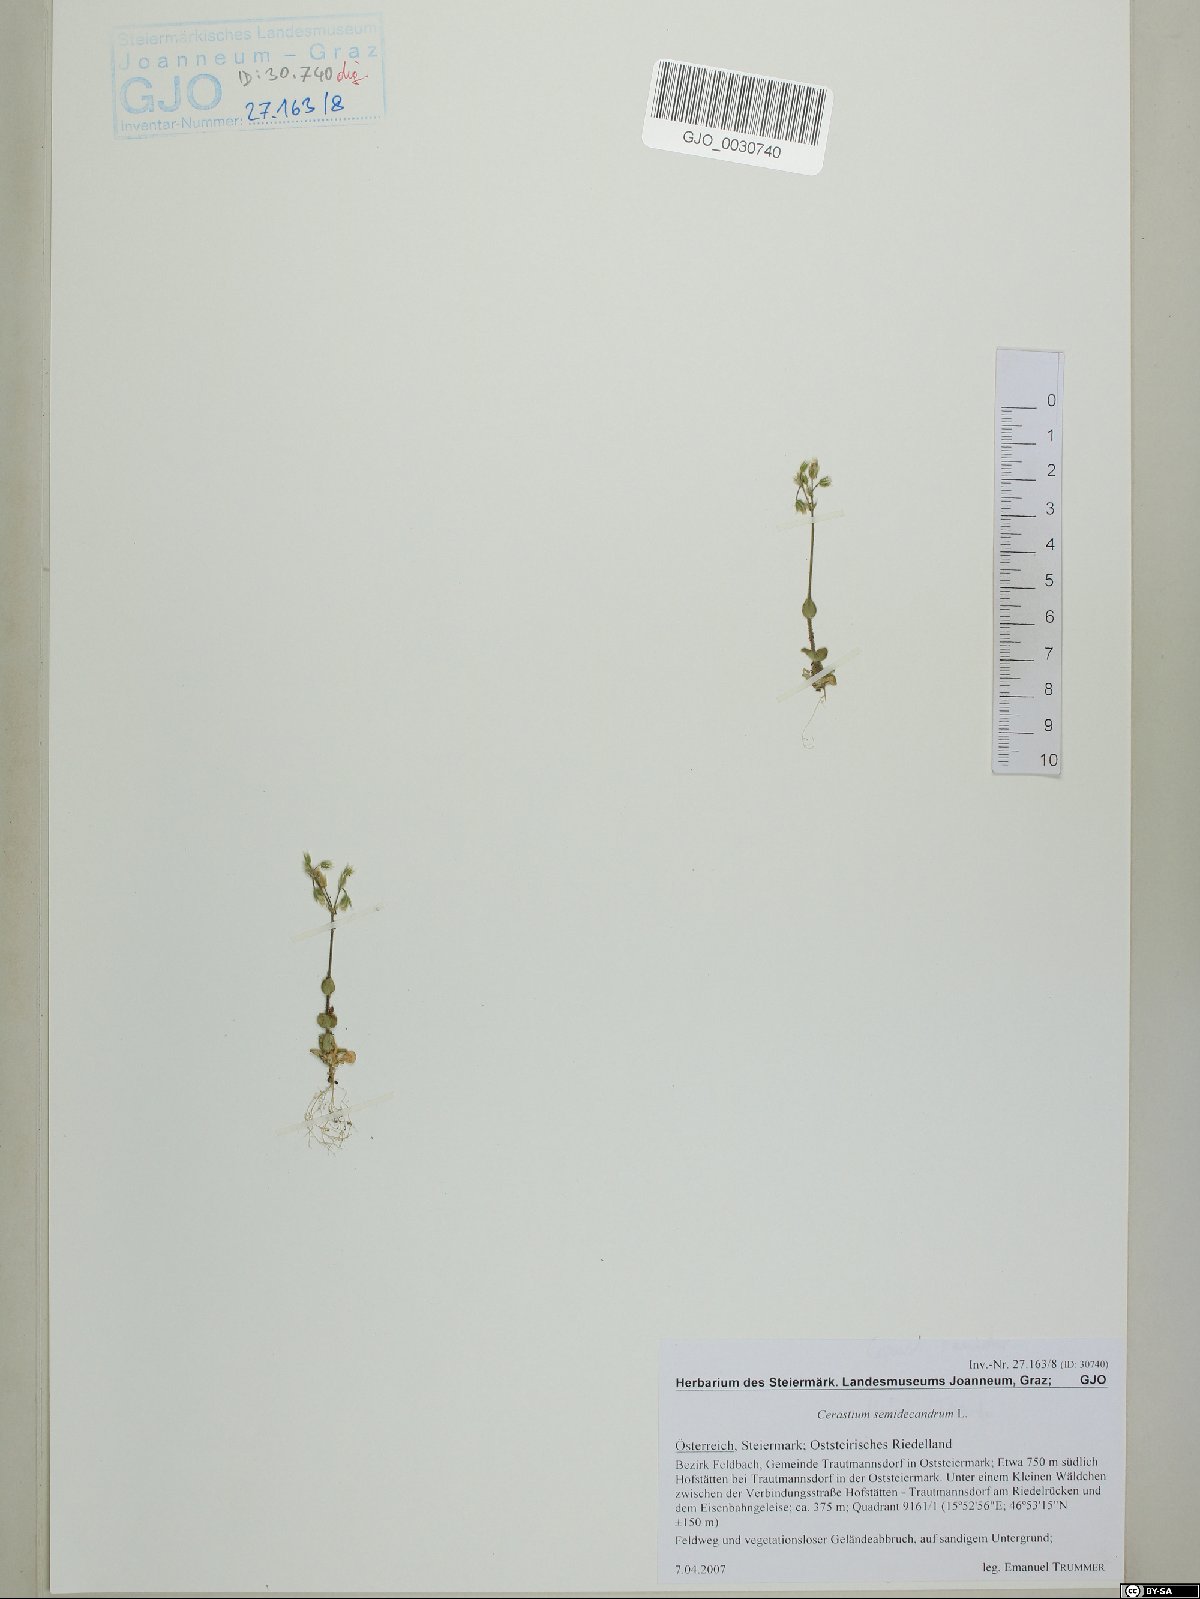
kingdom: Plantae
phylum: Tracheophyta
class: Magnoliopsida
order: Caryophyllales
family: Caryophyllaceae
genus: Cerastium
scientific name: Cerastium semidecandrum
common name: Little mouse-ear
